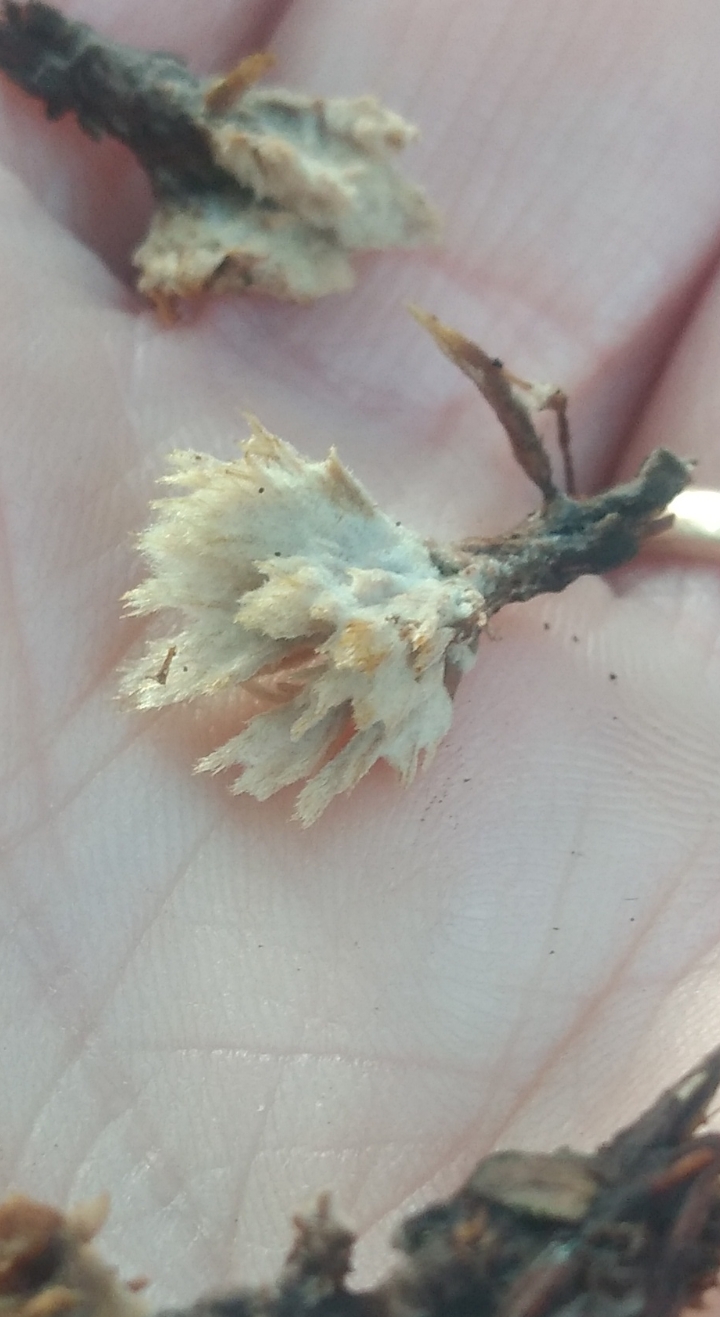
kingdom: Fungi
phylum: Basidiomycota
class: Agaricomycetes
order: Thelephorales
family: Thelephoraceae
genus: Thelephora
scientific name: Thelephora
